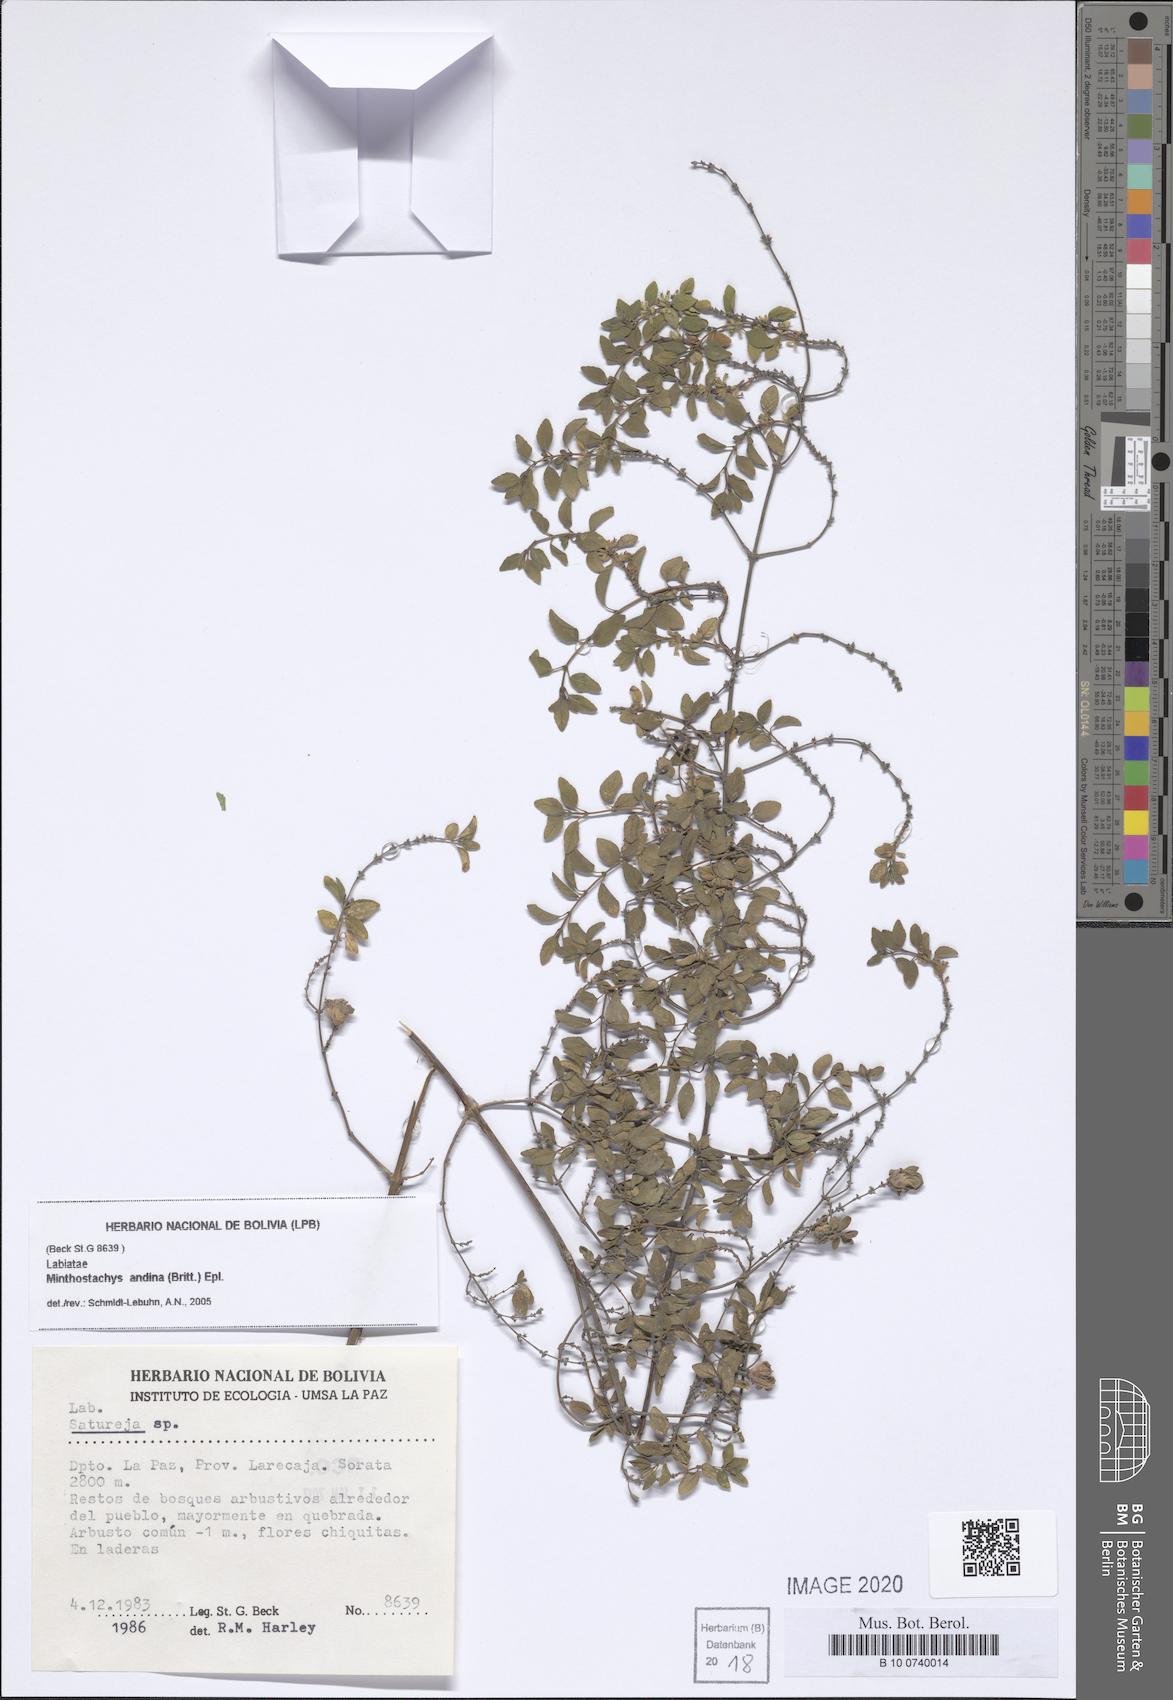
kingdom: Plantae
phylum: Tracheophyta
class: Magnoliopsida
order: Lamiales
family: Lamiaceae
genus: Minthostachys
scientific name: Minthostachys andina
